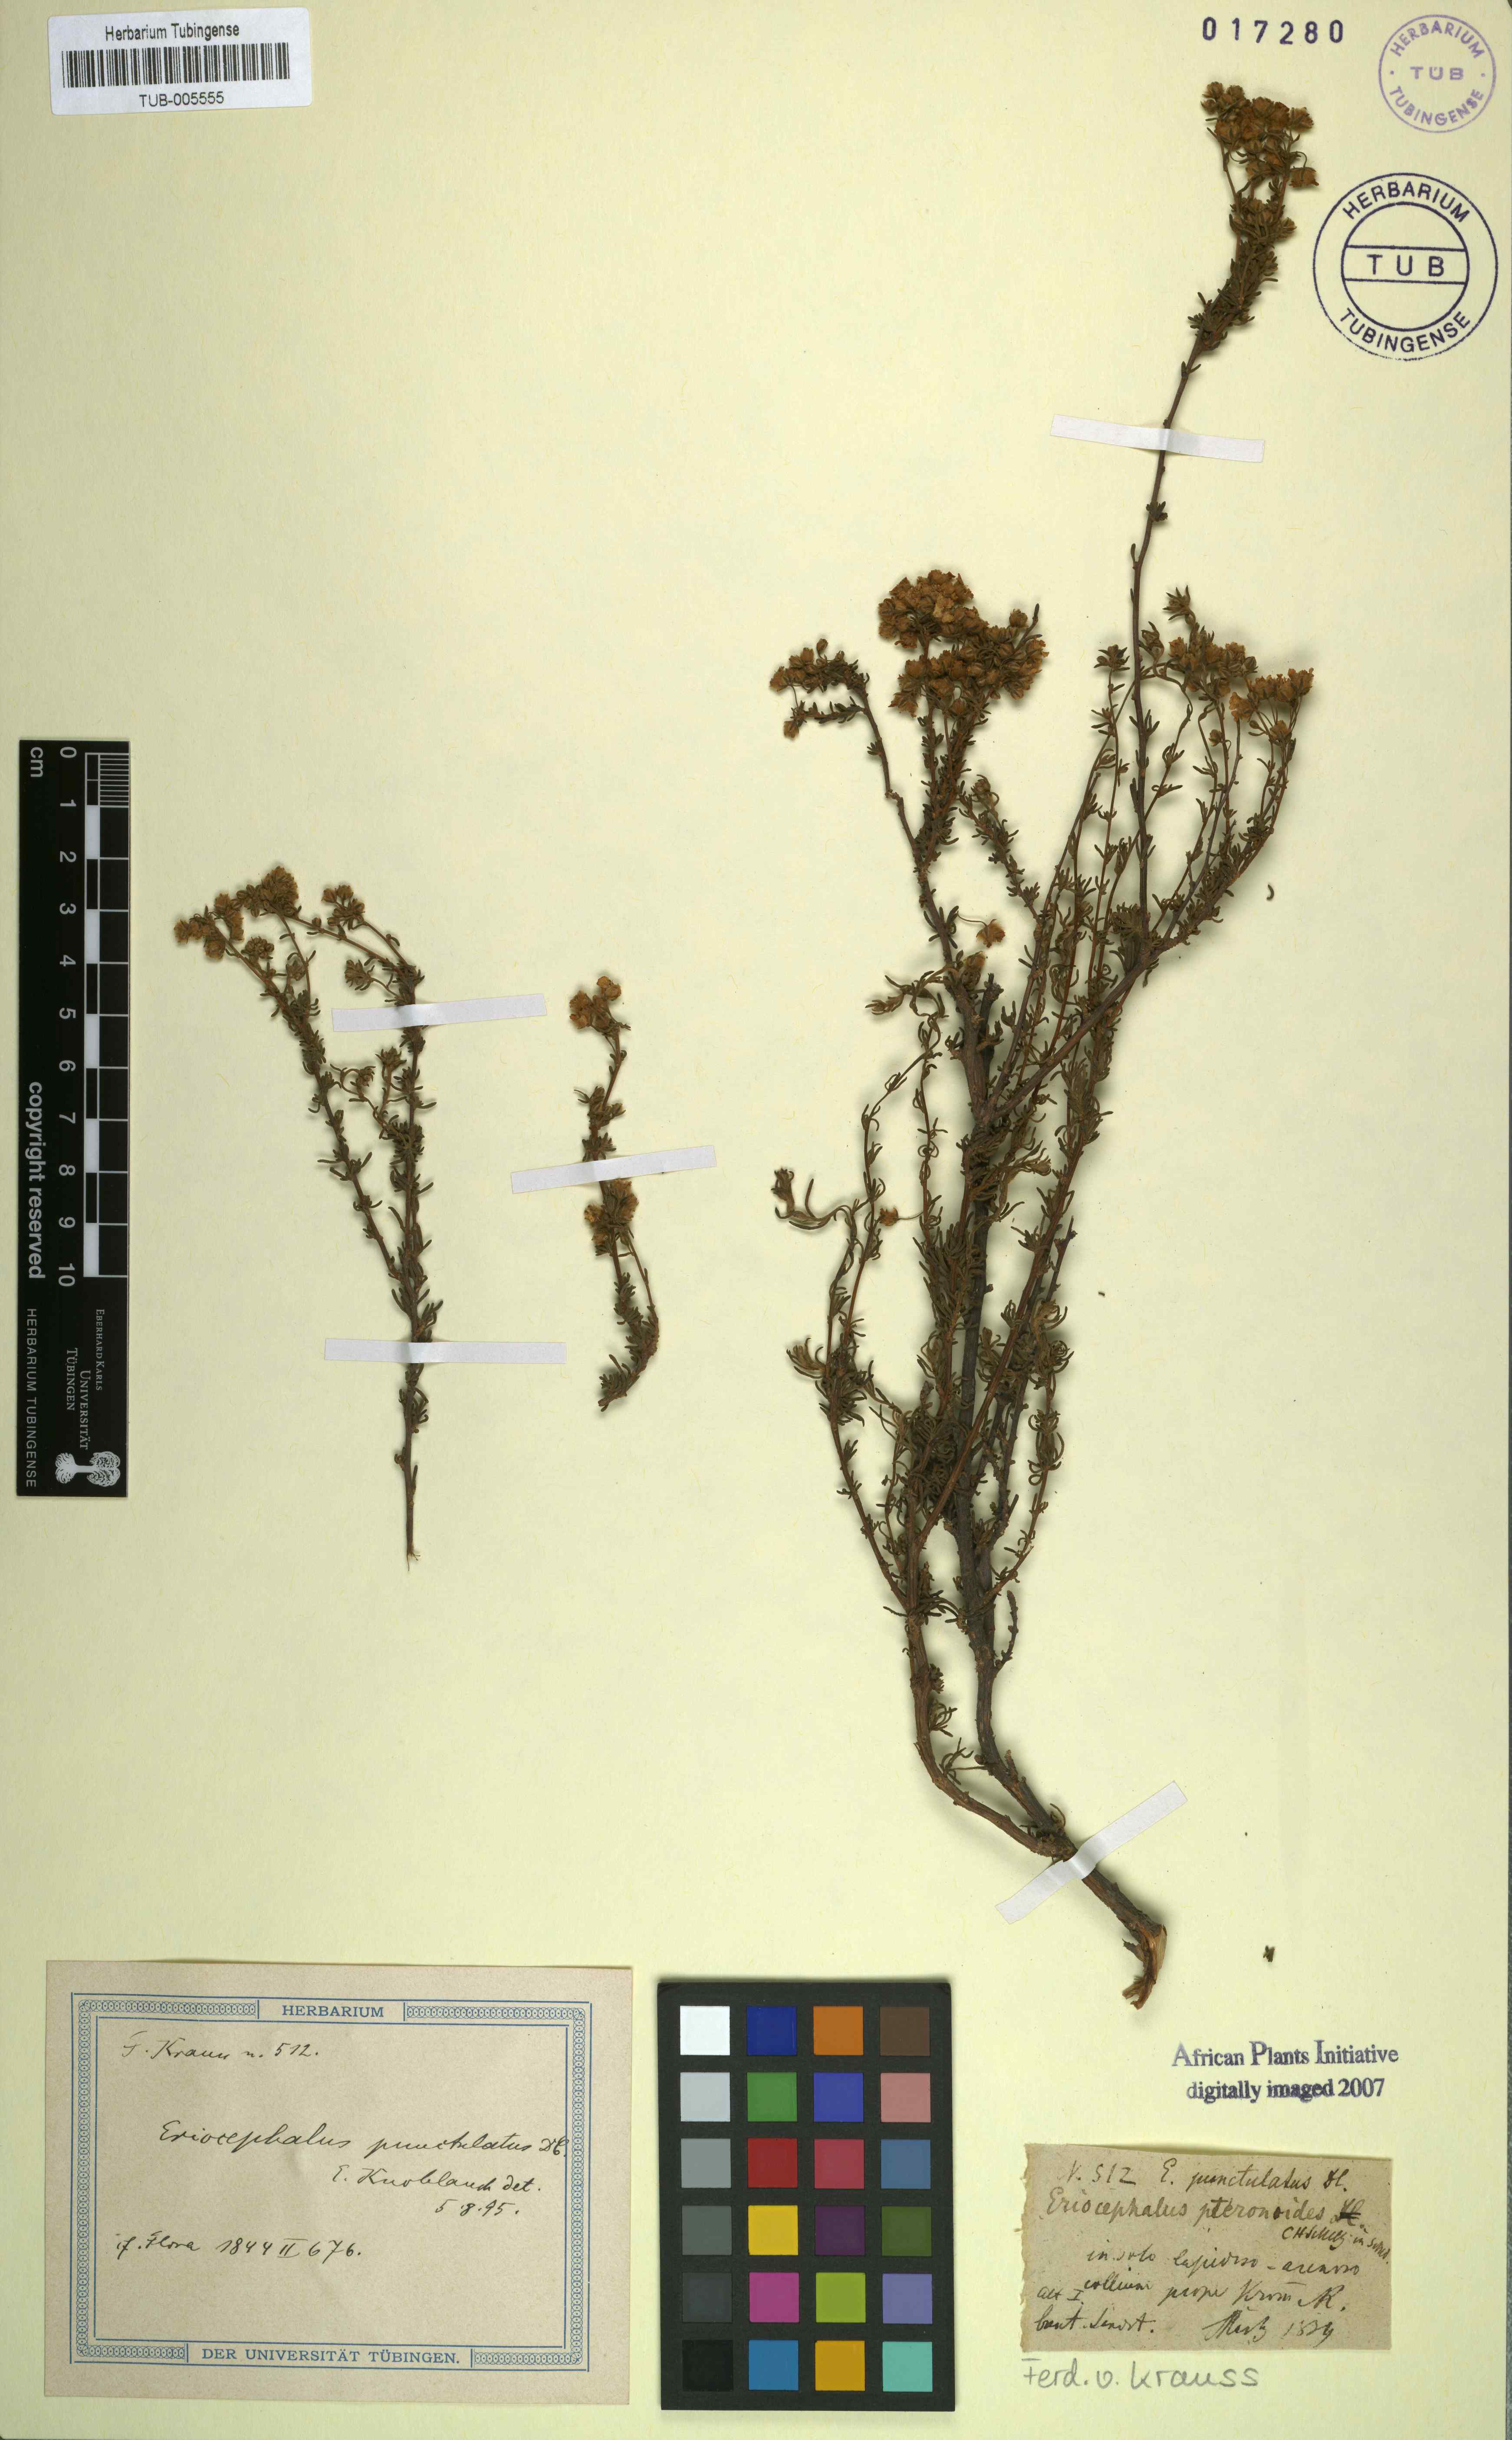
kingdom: Plantae
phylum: Tracheophyta
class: Magnoliopsida
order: Asterales
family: Asteraceae
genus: Eriocephalus
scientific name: Eriocephalus punctulatus
